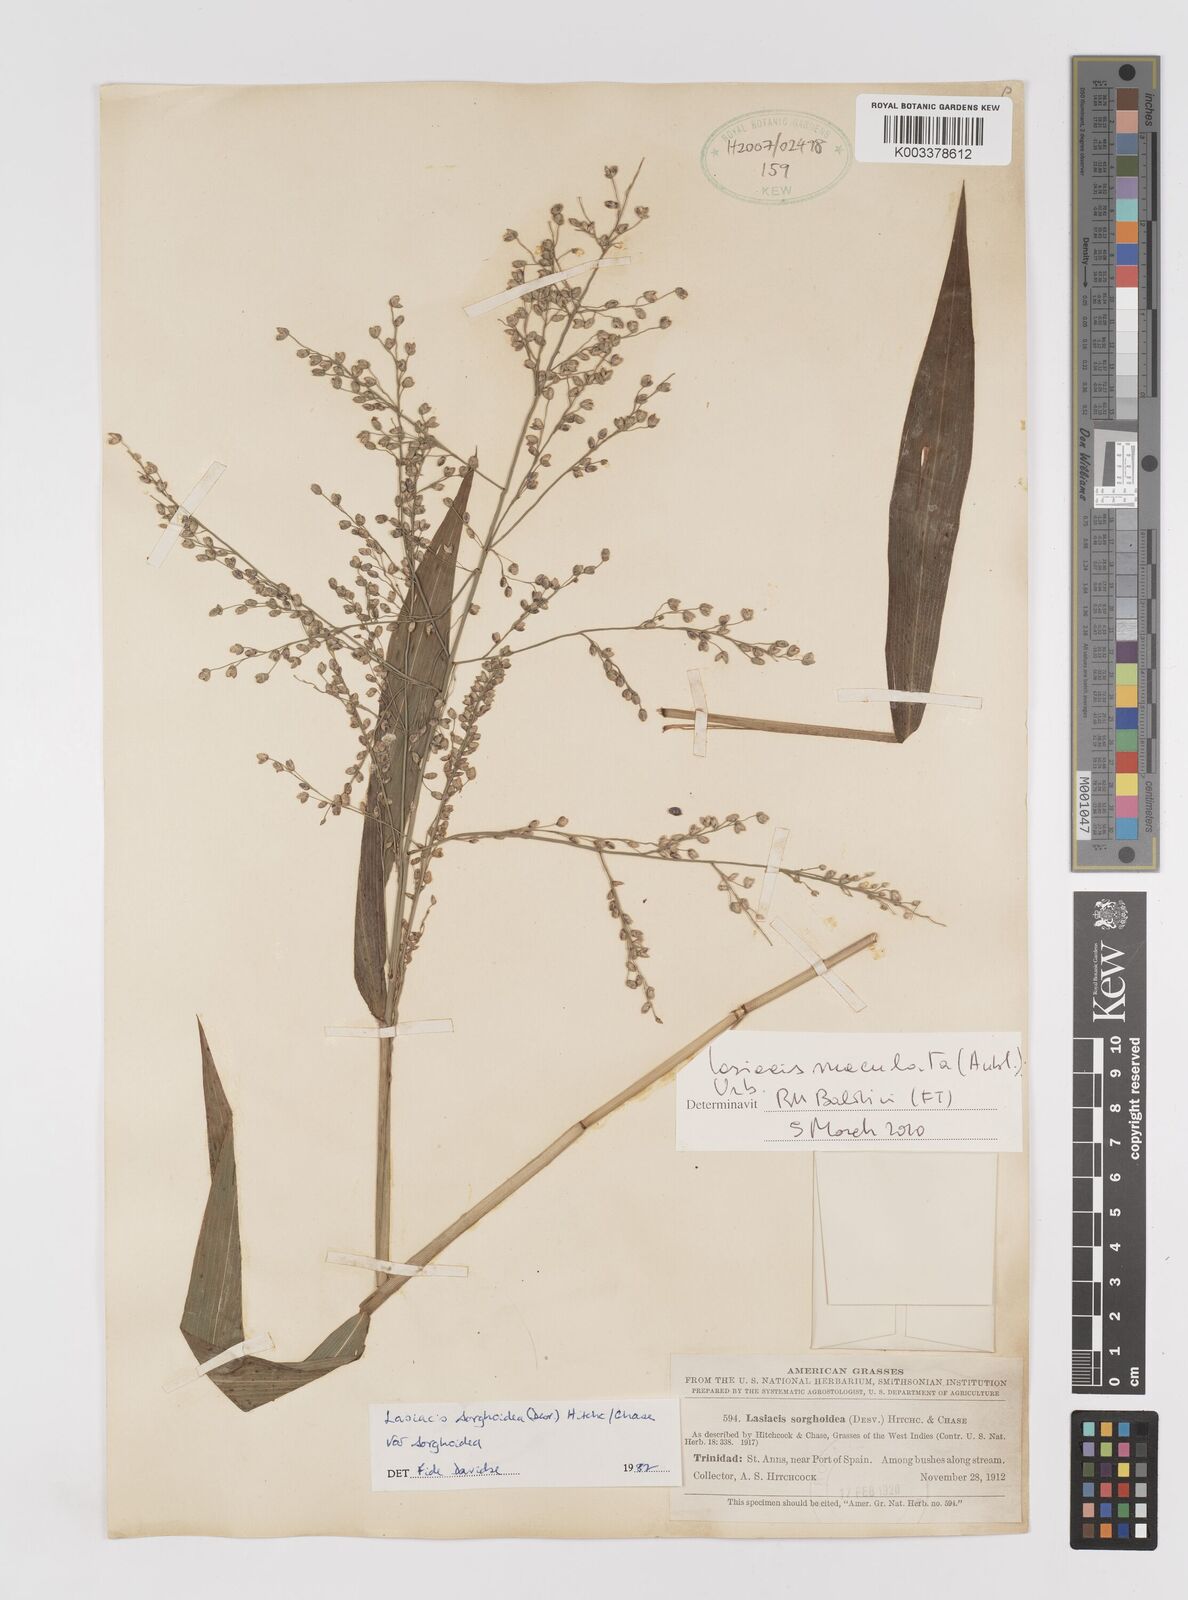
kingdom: Plantae
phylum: Tracheophyta
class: Liliopsida
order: Poales
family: Poaceae
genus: Lasiacis
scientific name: Lasiacis maculata
